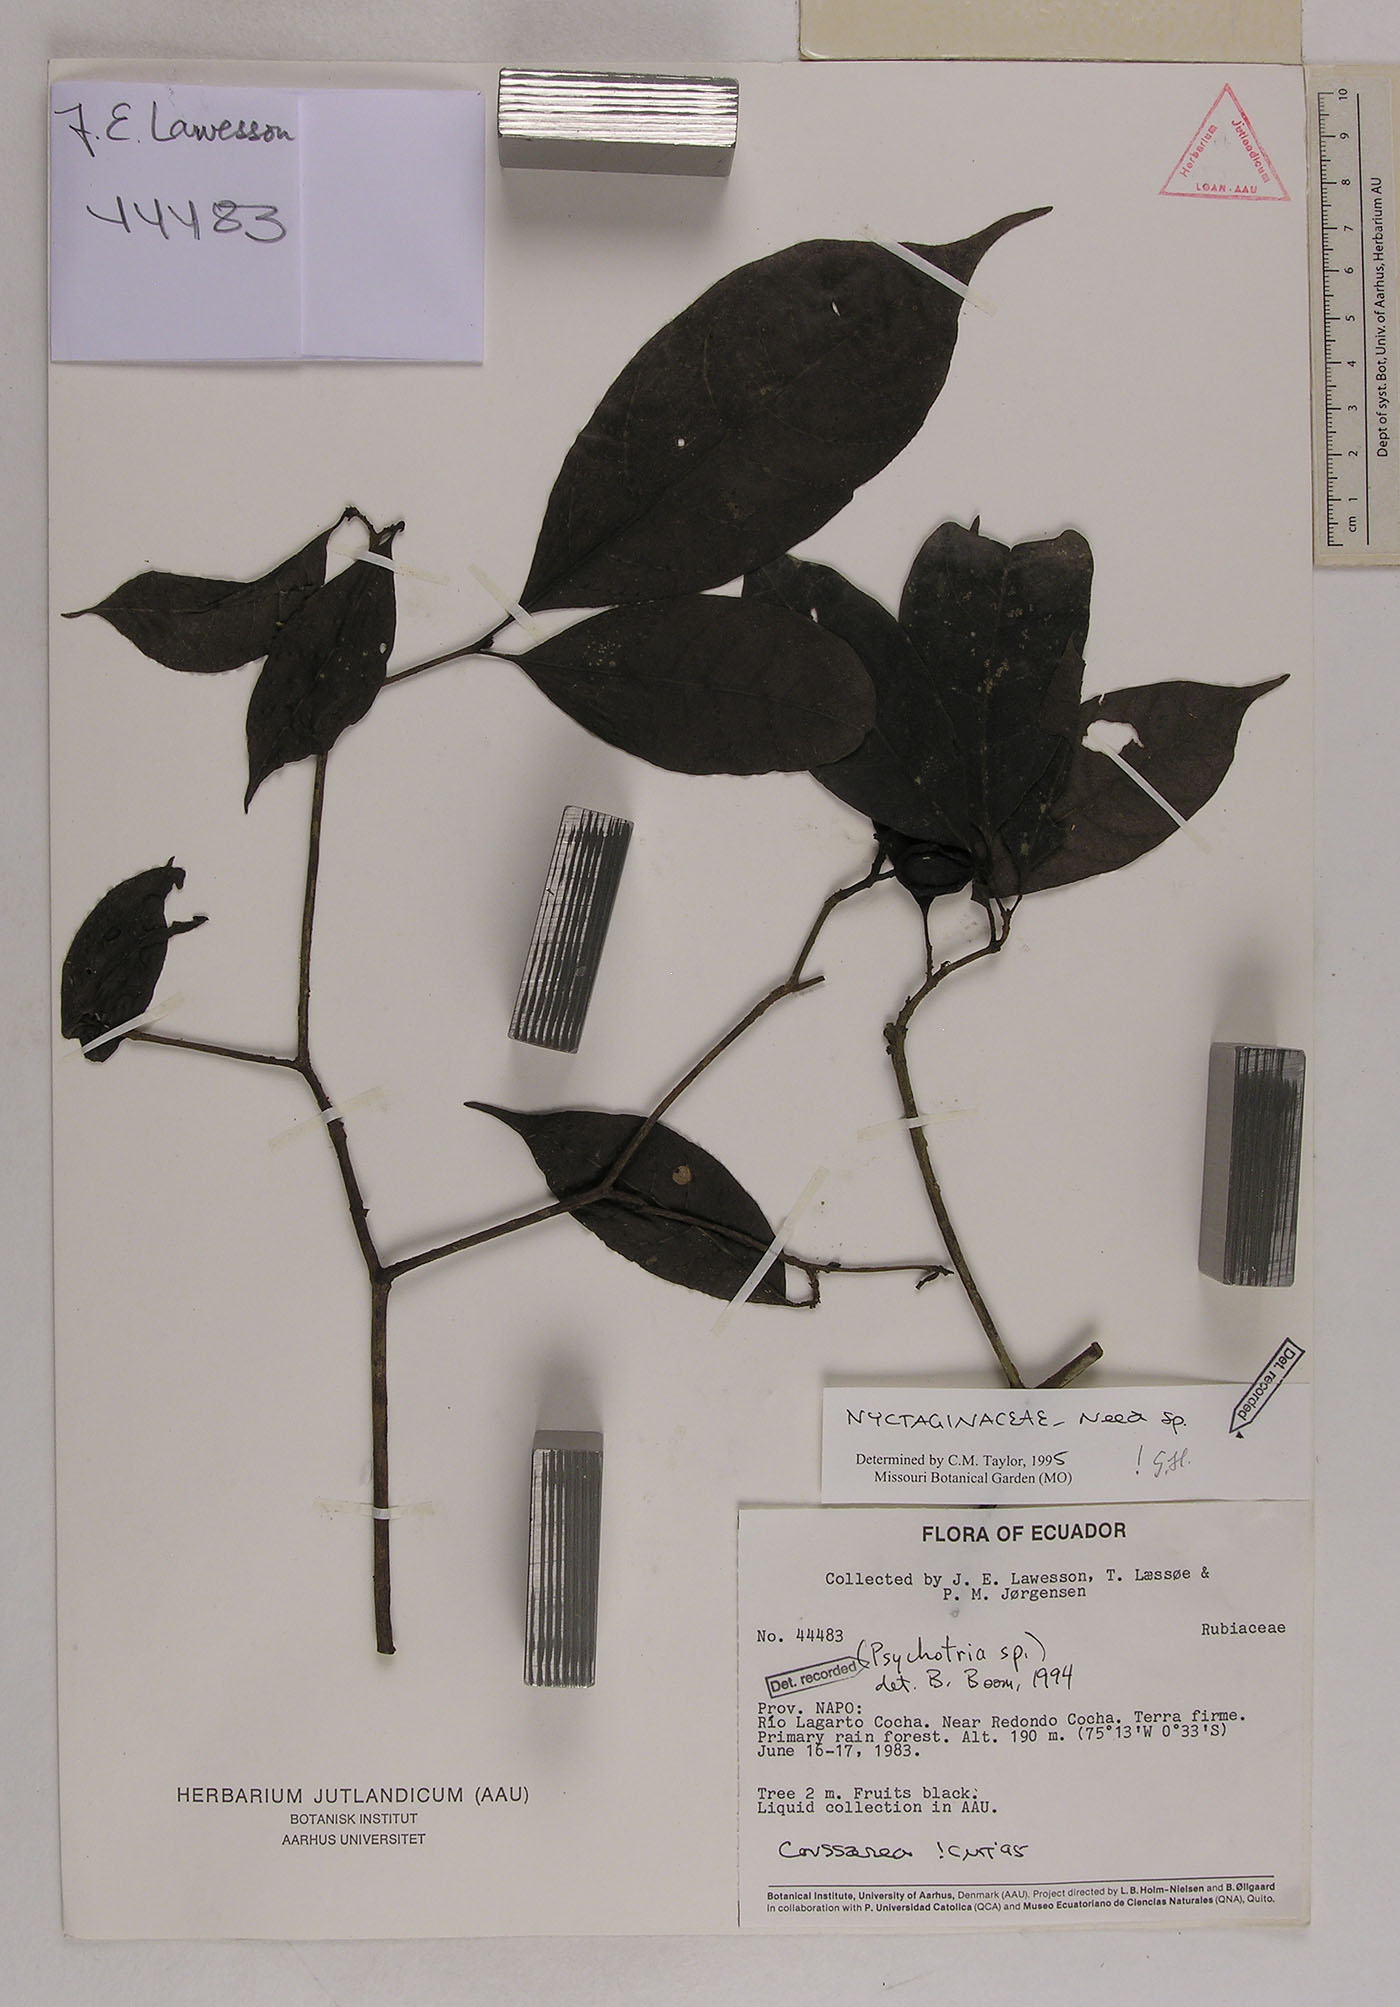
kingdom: Plantae
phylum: Tracheophyta
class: Magnoliopsida
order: Caryophyllales
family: Nyctaginaceae
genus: Neea
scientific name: Neea
